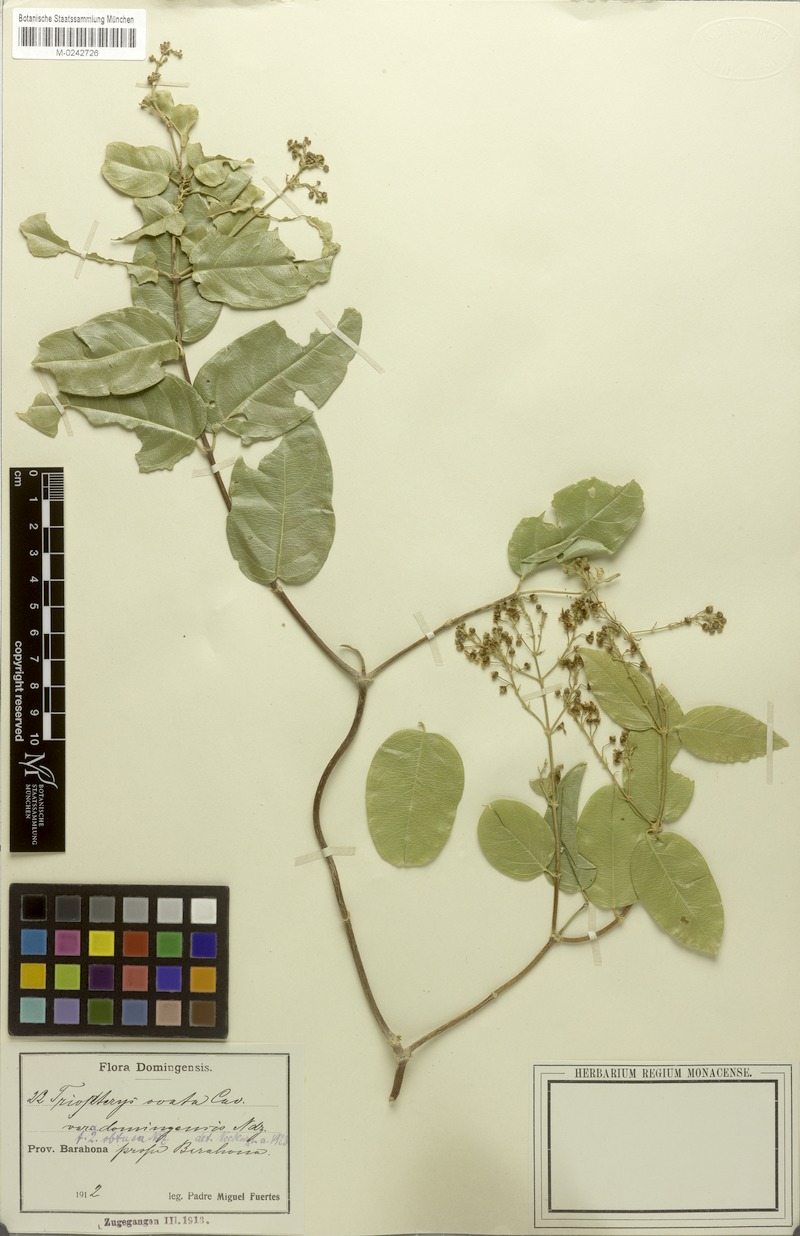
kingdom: Plantae
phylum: Tracheophyta
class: Magnoliopsida
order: Malpighiales
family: Malpighiaceae
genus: Mascagnia
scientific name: Mascagnia paniculata
